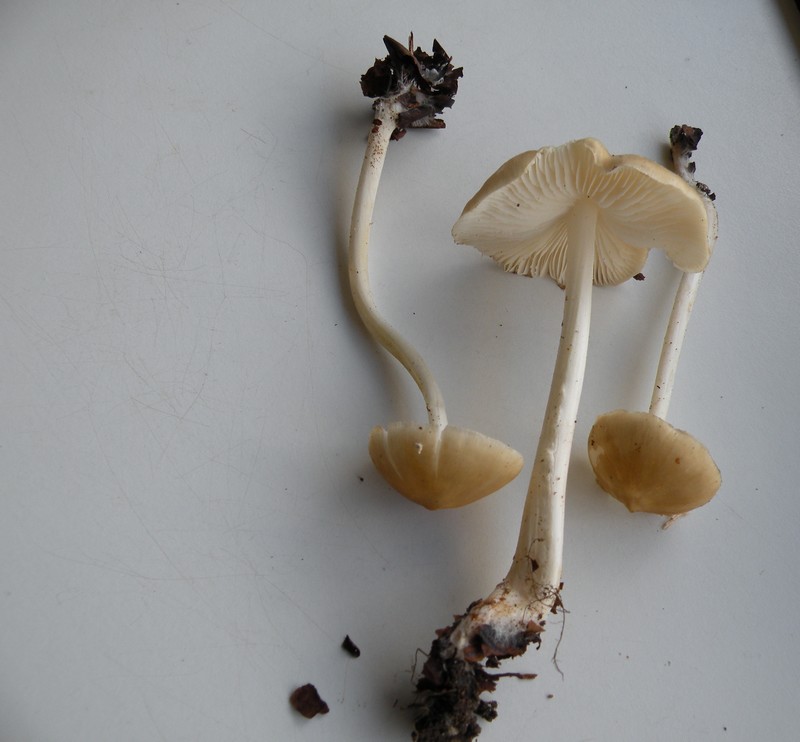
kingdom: Fungi
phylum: Basidiomycota
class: Agaricomycetes
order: Agaricales
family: Porotheleaceae
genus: Hydropodia
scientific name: Hydropodia subalpina
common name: vår-fnugfod
